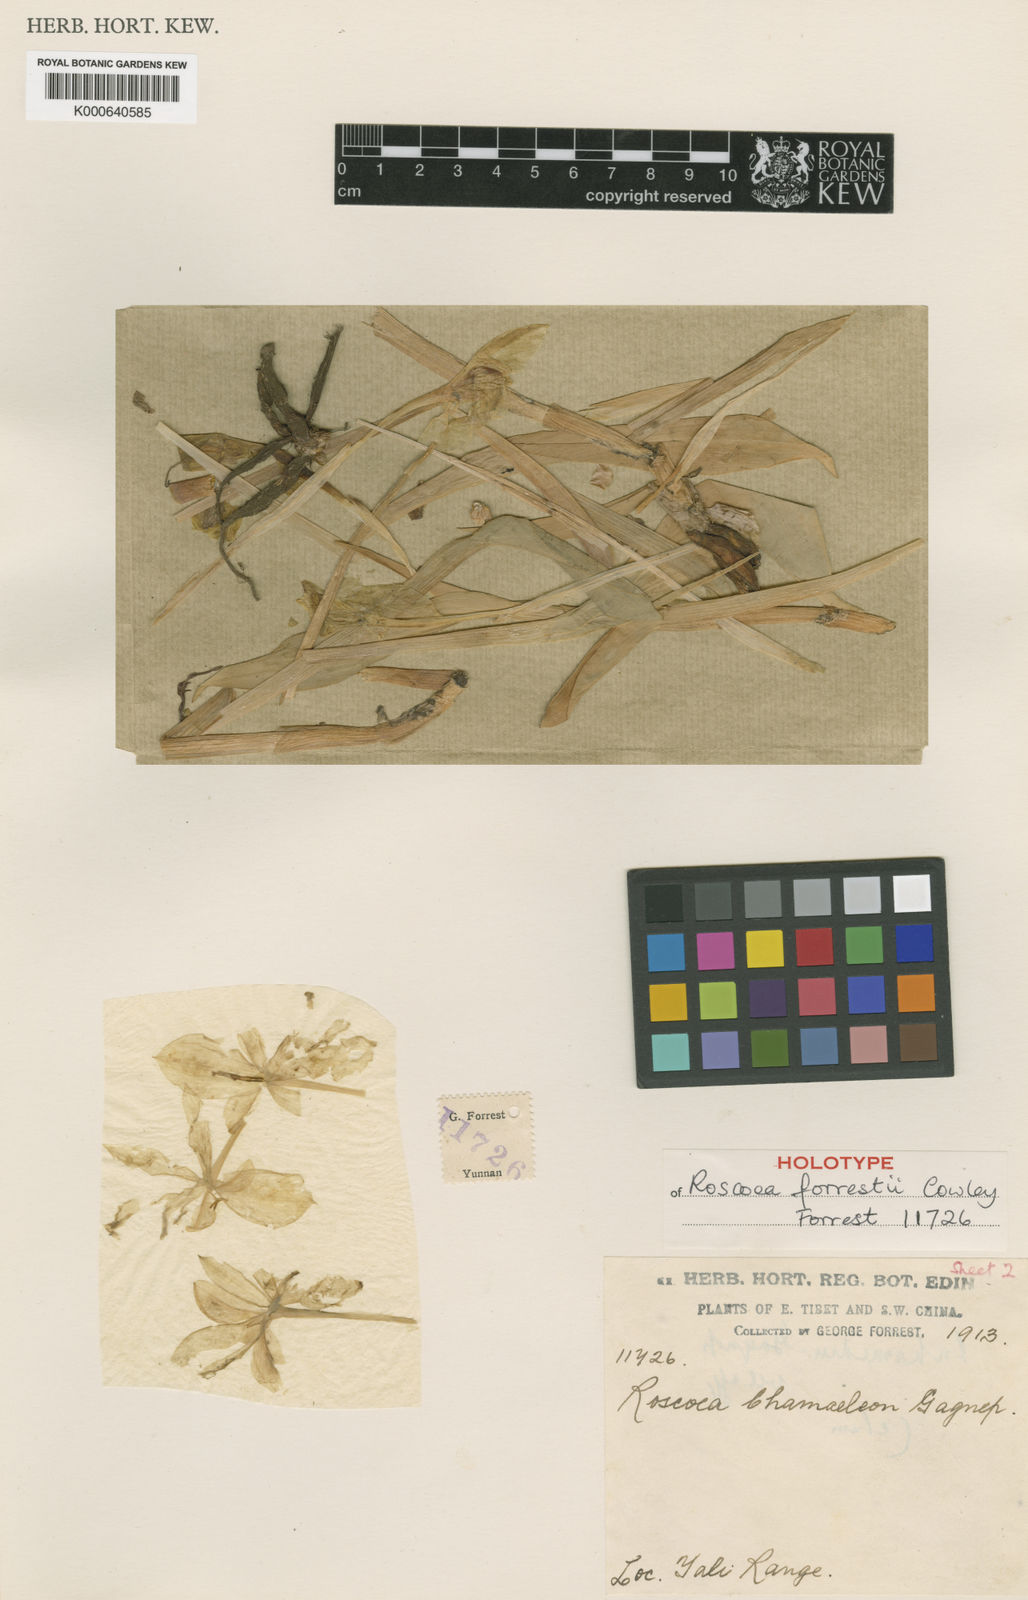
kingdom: Plantae
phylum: Tracheophyta
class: Liliopsida
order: Zingiberales
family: Zingiberaceae
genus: Roscoea
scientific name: Roscoea forrestii
